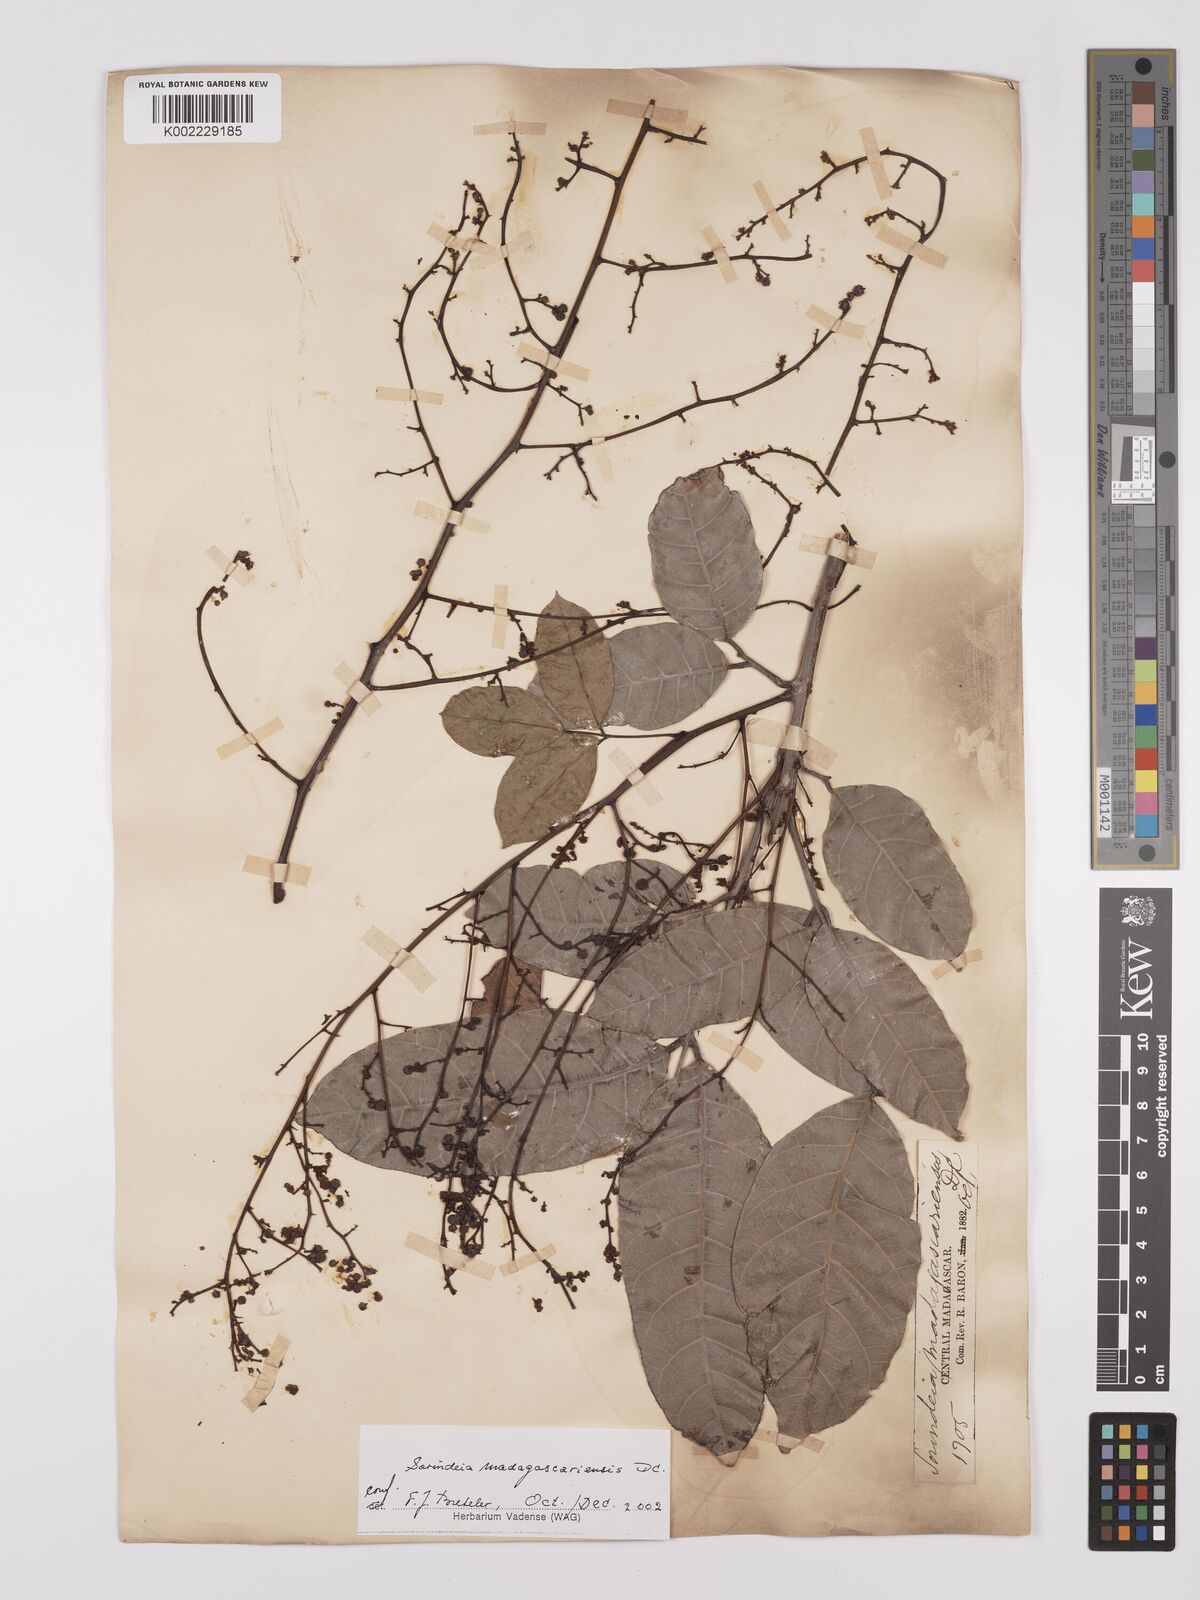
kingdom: Plantae
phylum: Tracheophyta
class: Magnoliopsida
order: Sapindales
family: Anacardiaceae
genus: Sorindeia
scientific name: Sorindeia madagascariensis
